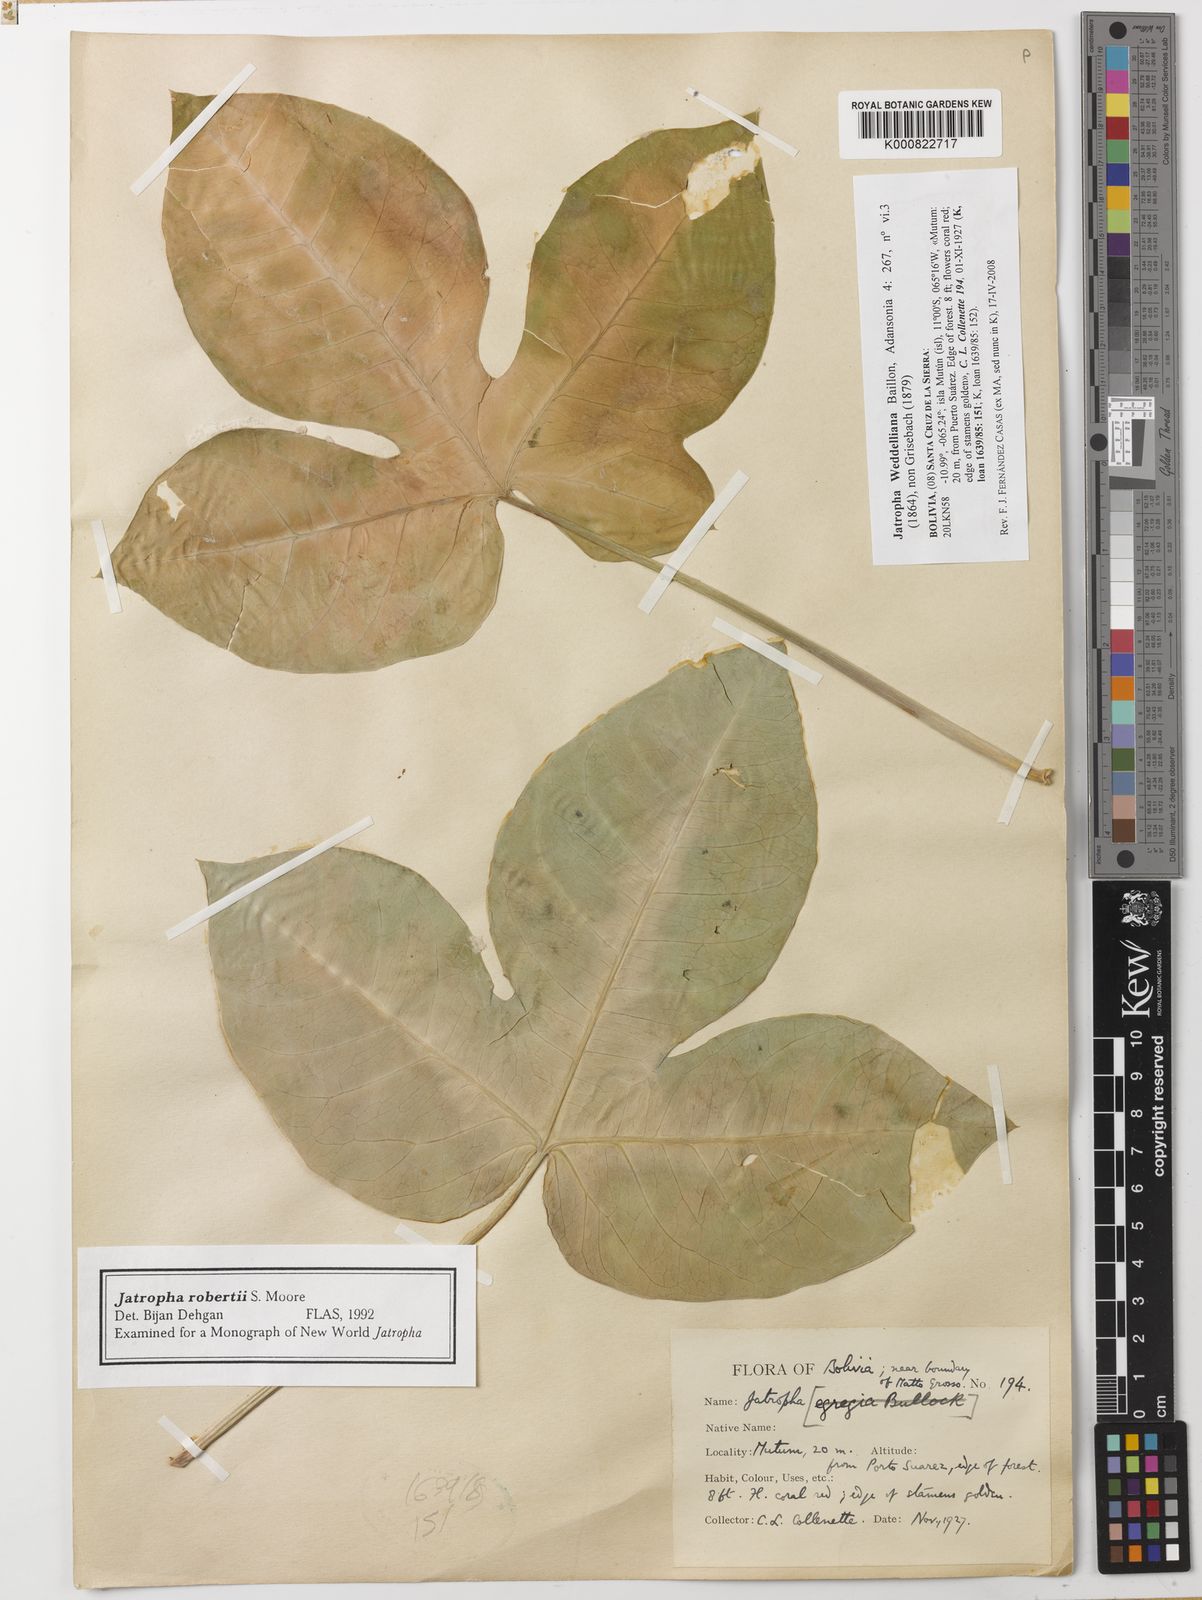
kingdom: Plantae
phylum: Tracheophyta
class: Magnoliopsida
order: Malpighiales
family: Euphorbiaceae
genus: Jatropha
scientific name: Jatropha weddeliana
